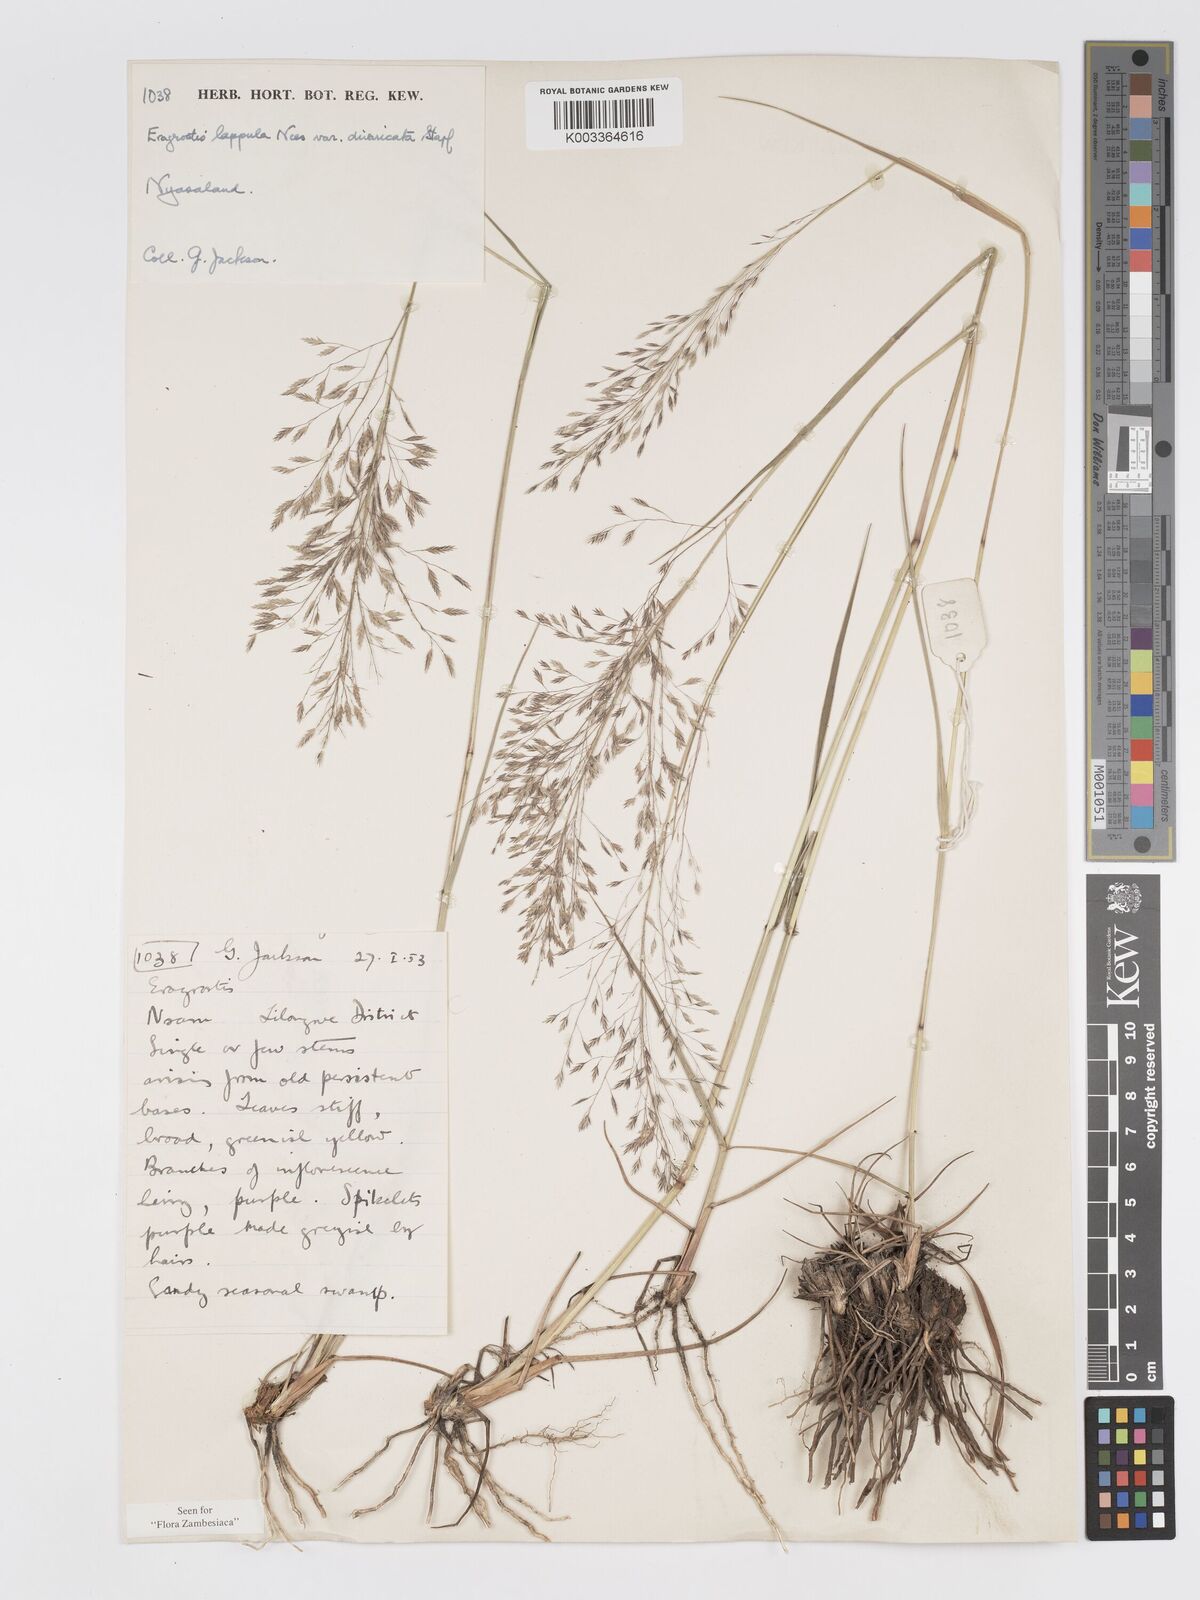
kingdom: Plantae
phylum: Tracheophyta
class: Liliopsida
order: Poales
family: Poaceae
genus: Eragrostis
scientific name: Eragrostis lappula
